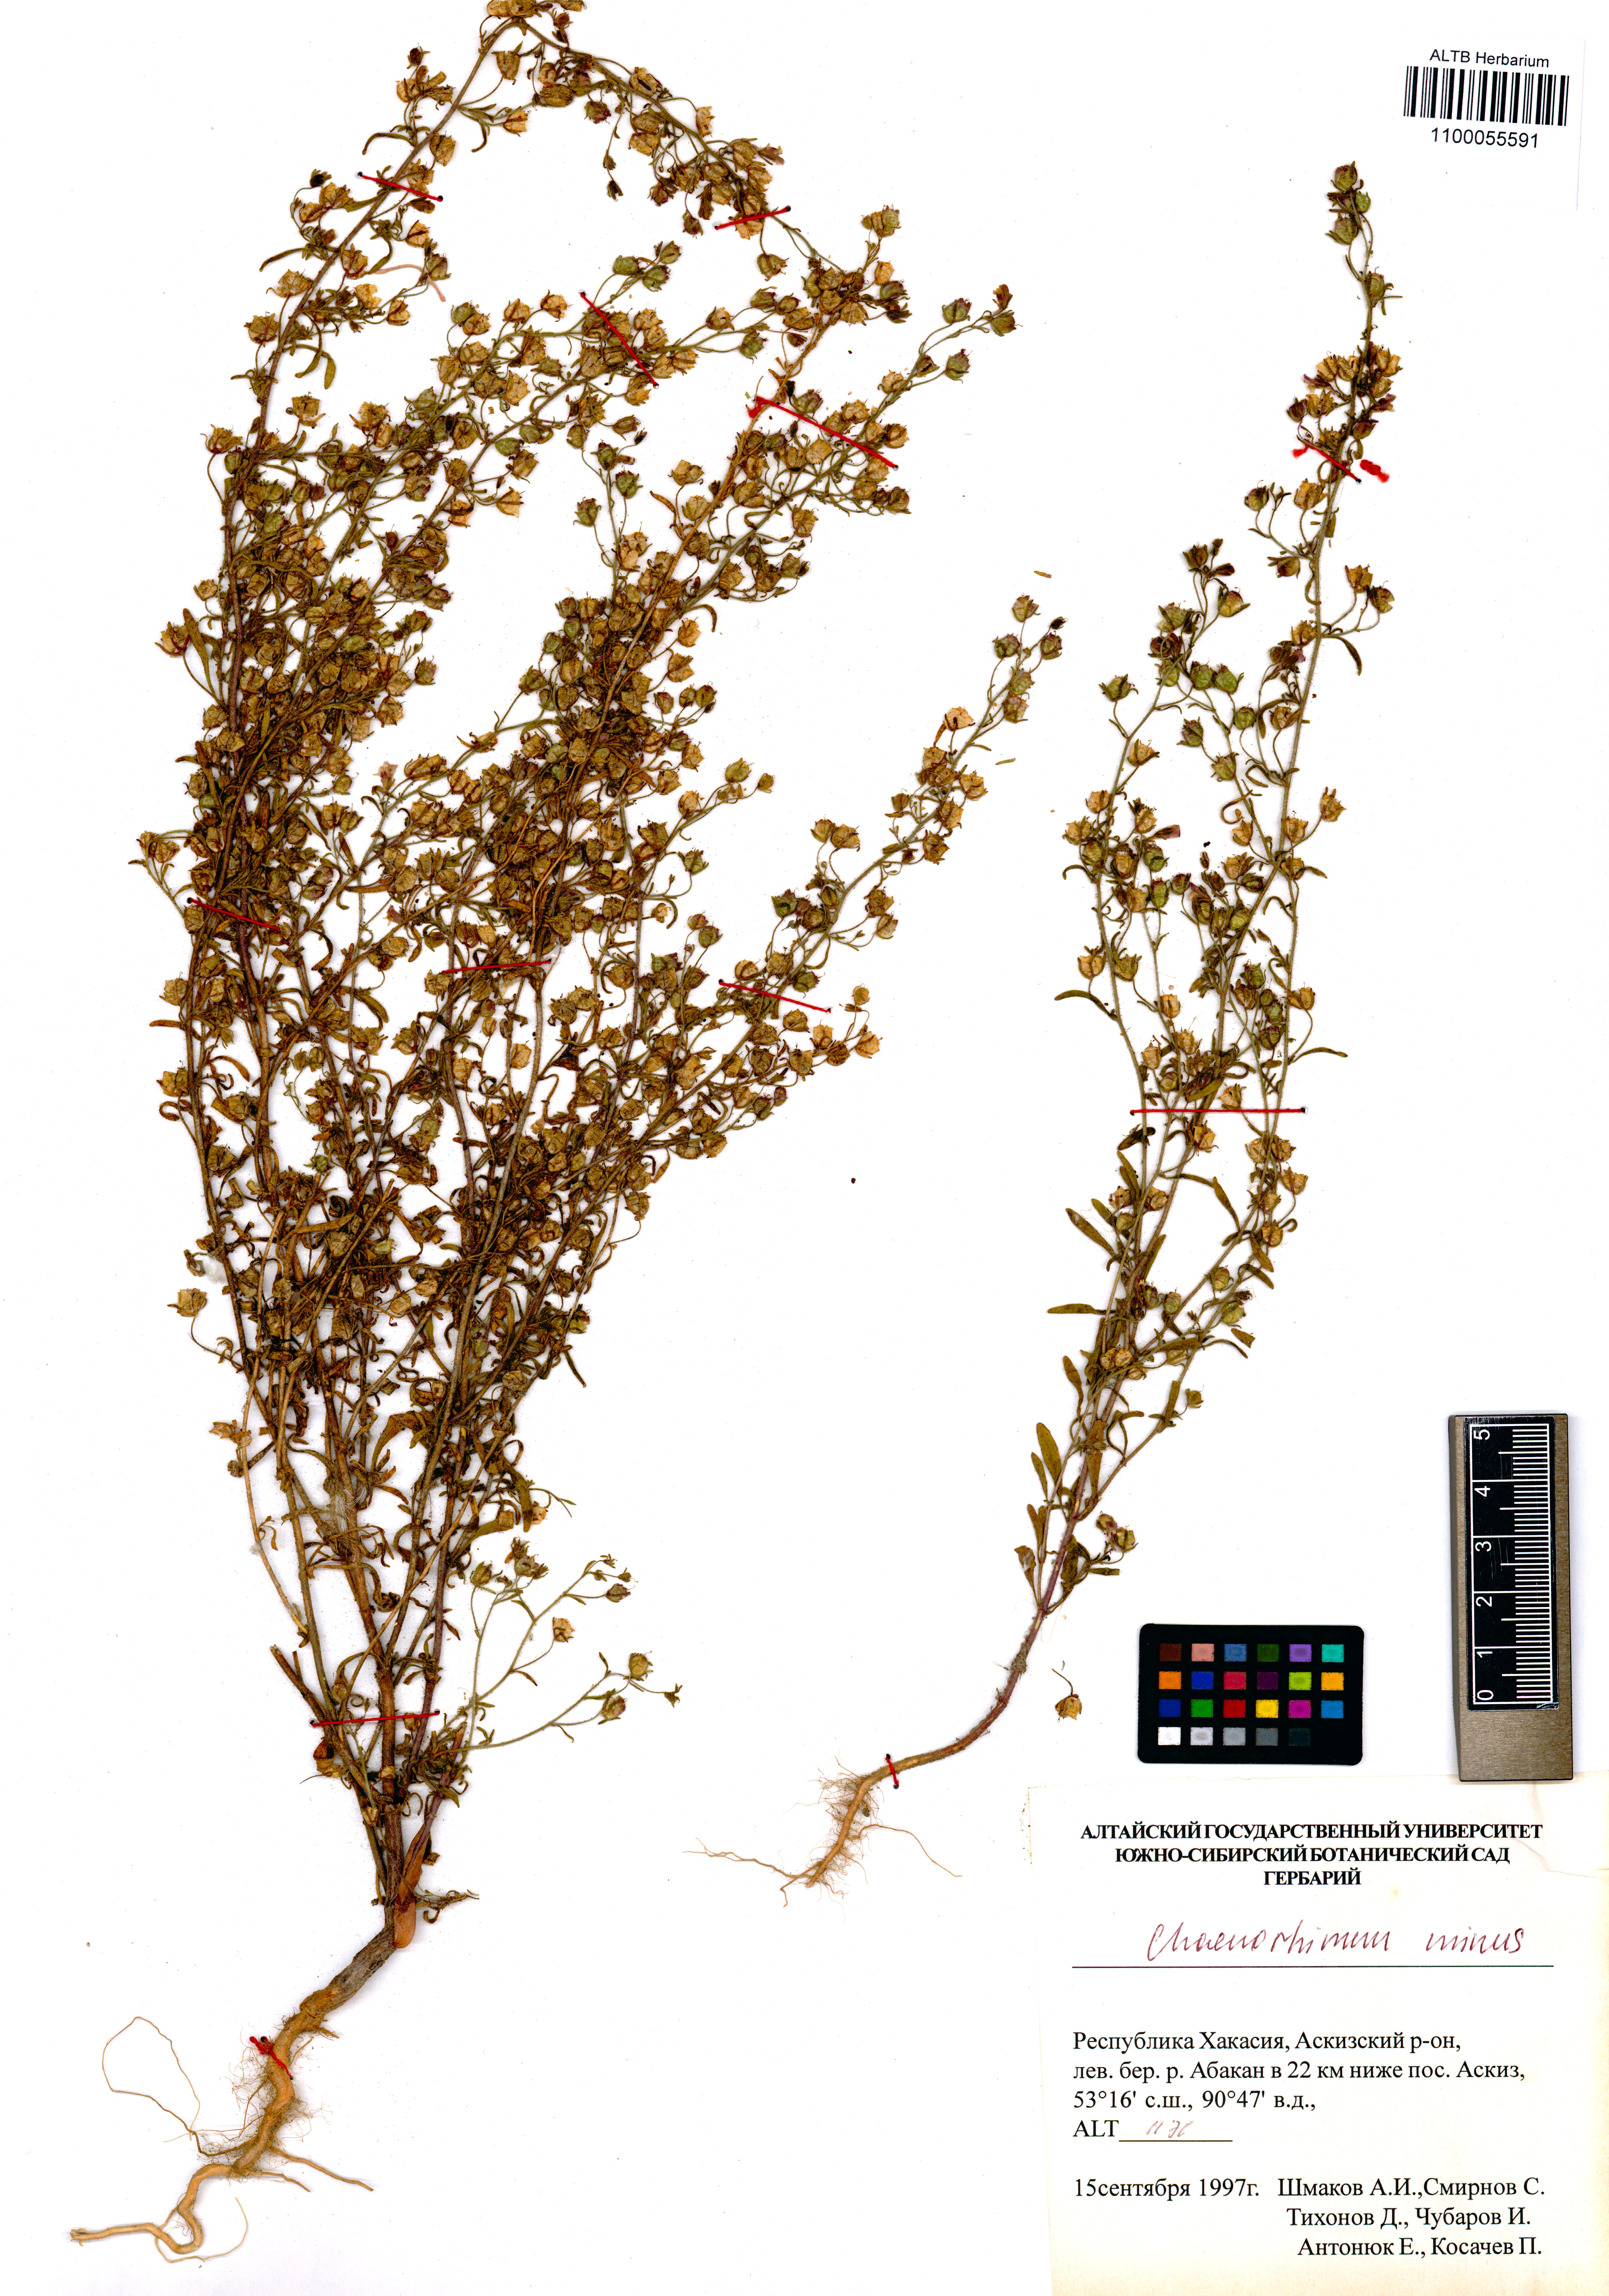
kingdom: Plantae
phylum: Tracheophyta
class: Magnoliopsida
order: Lamiales
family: Plantaginaceae
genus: Chaenorhinum
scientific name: Chaenorhinum minus
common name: Dwarf snapdragon
